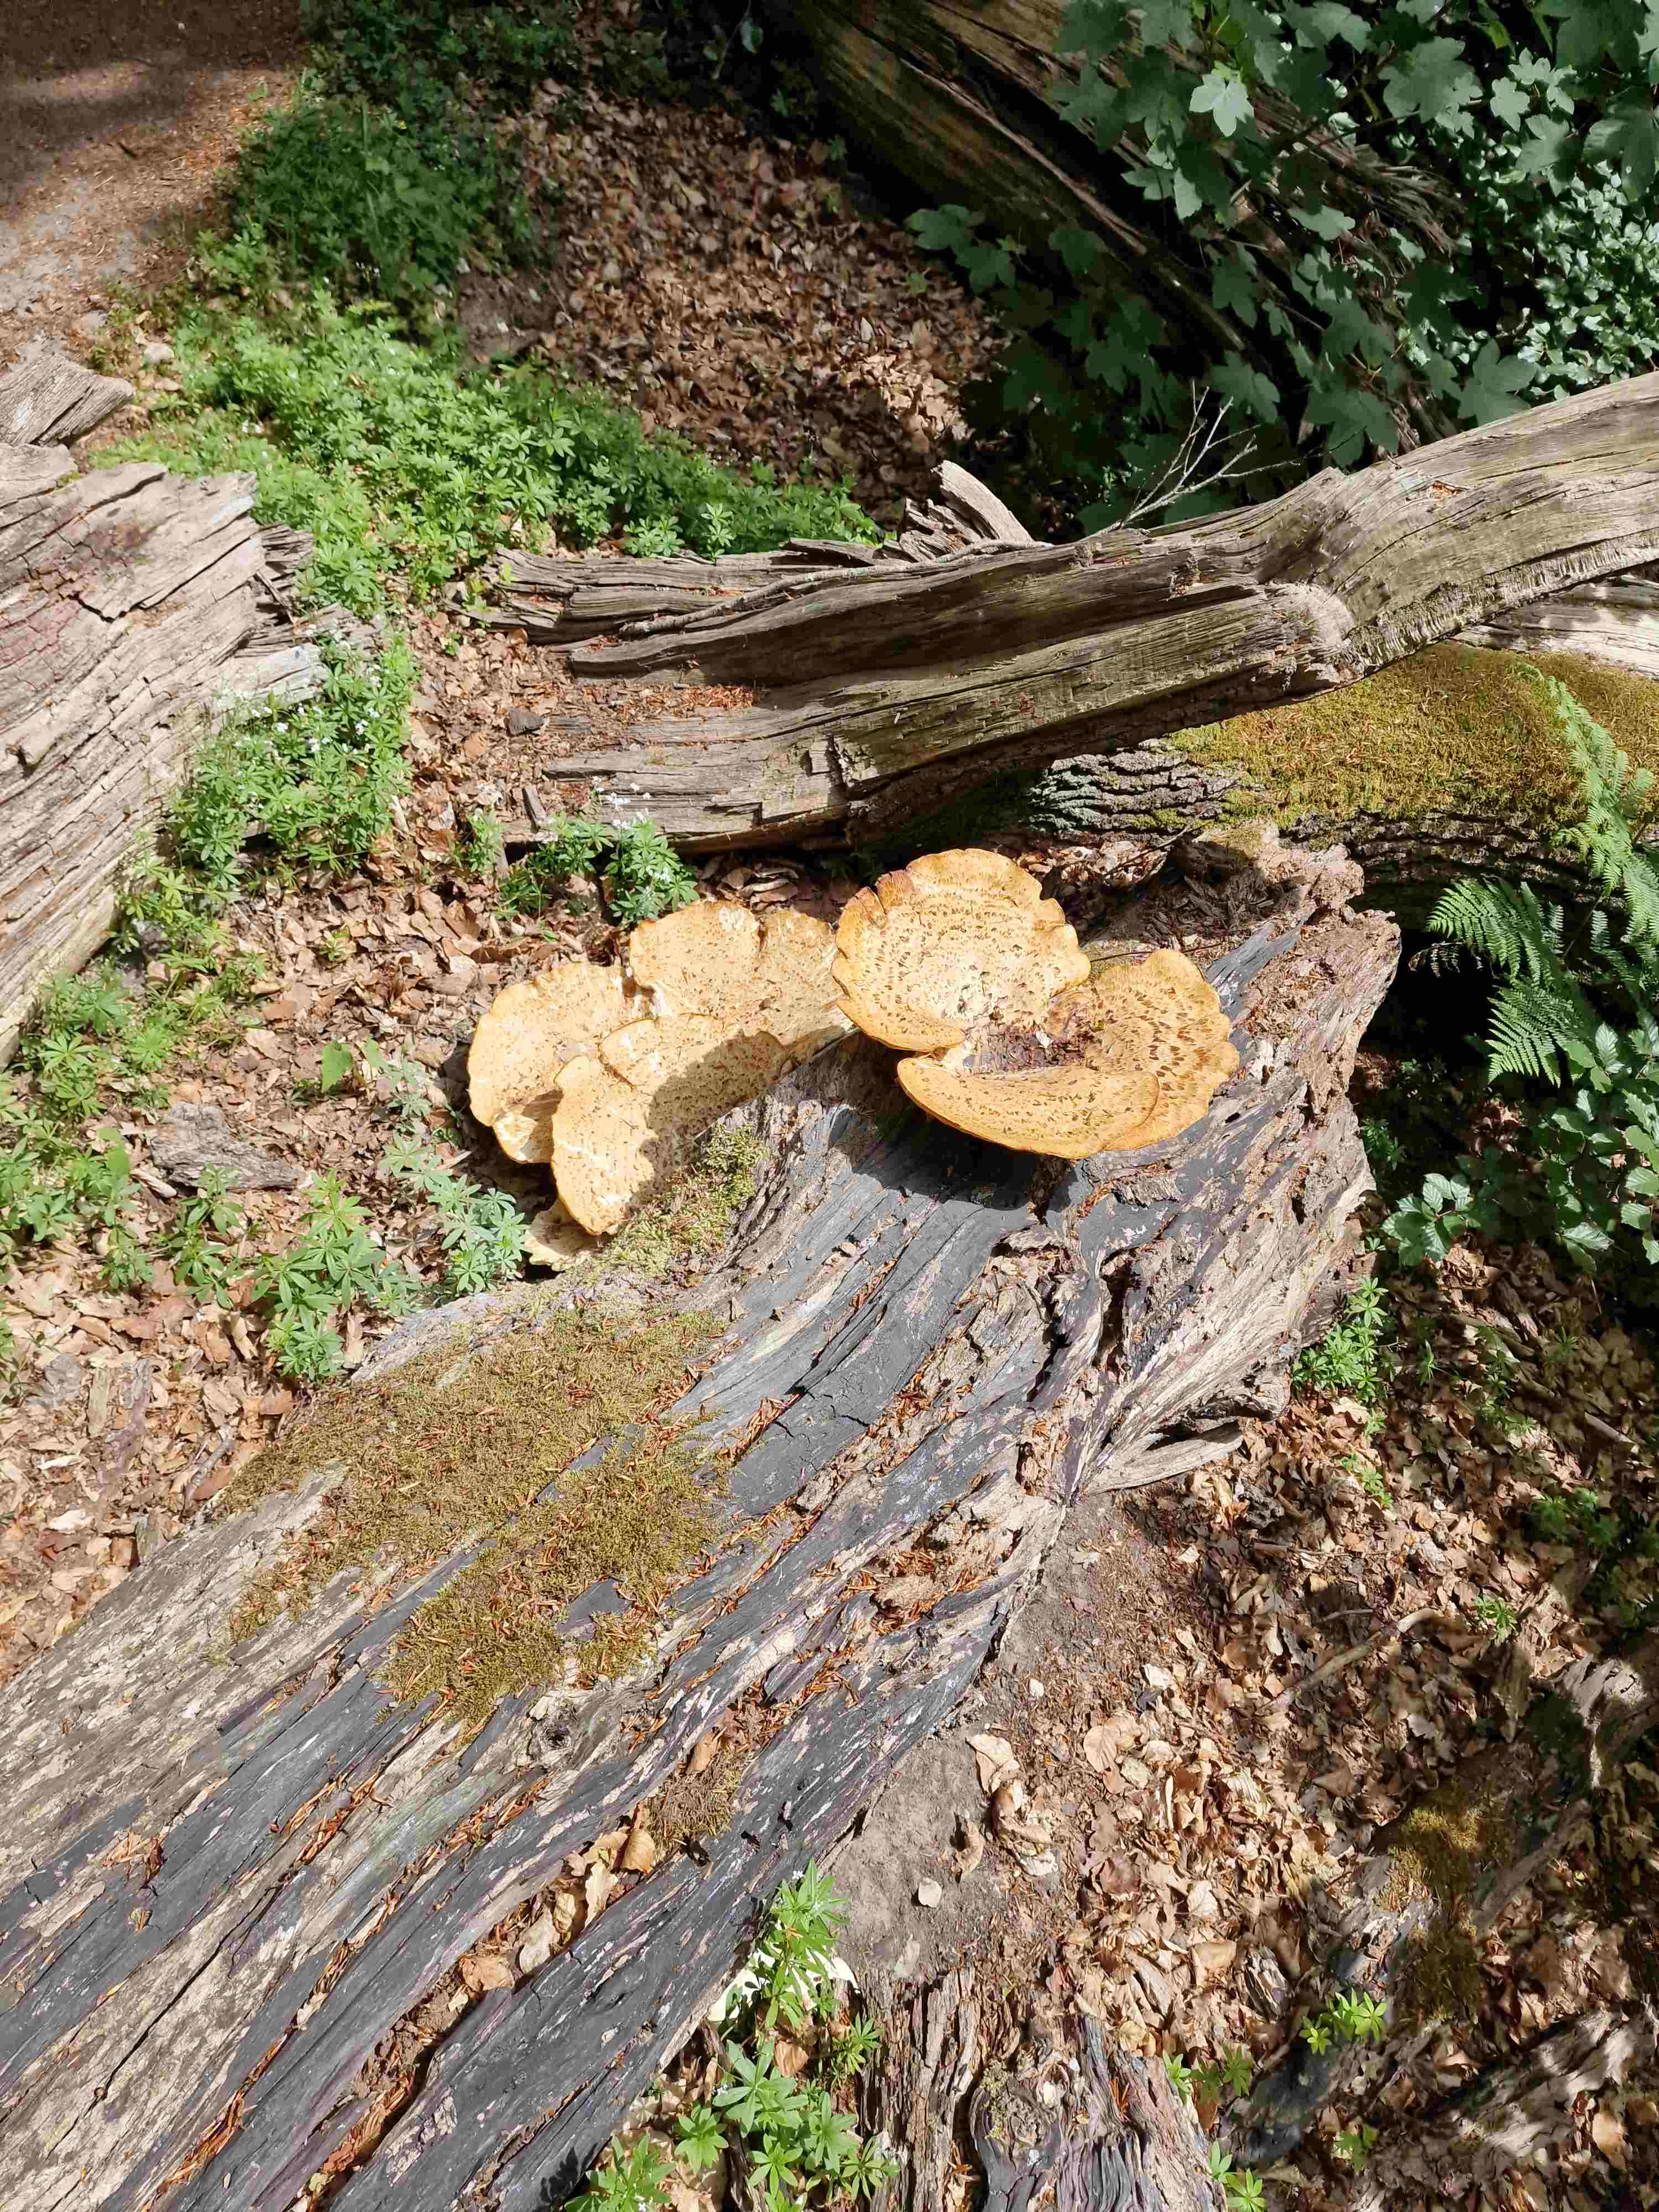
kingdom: Fungi
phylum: Basidiomycota
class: Agaricomycetes
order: Polyporales
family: Polyporaceae
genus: Cerioporus
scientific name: Cerioporus squamosus
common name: skællet stilkporesvamp
